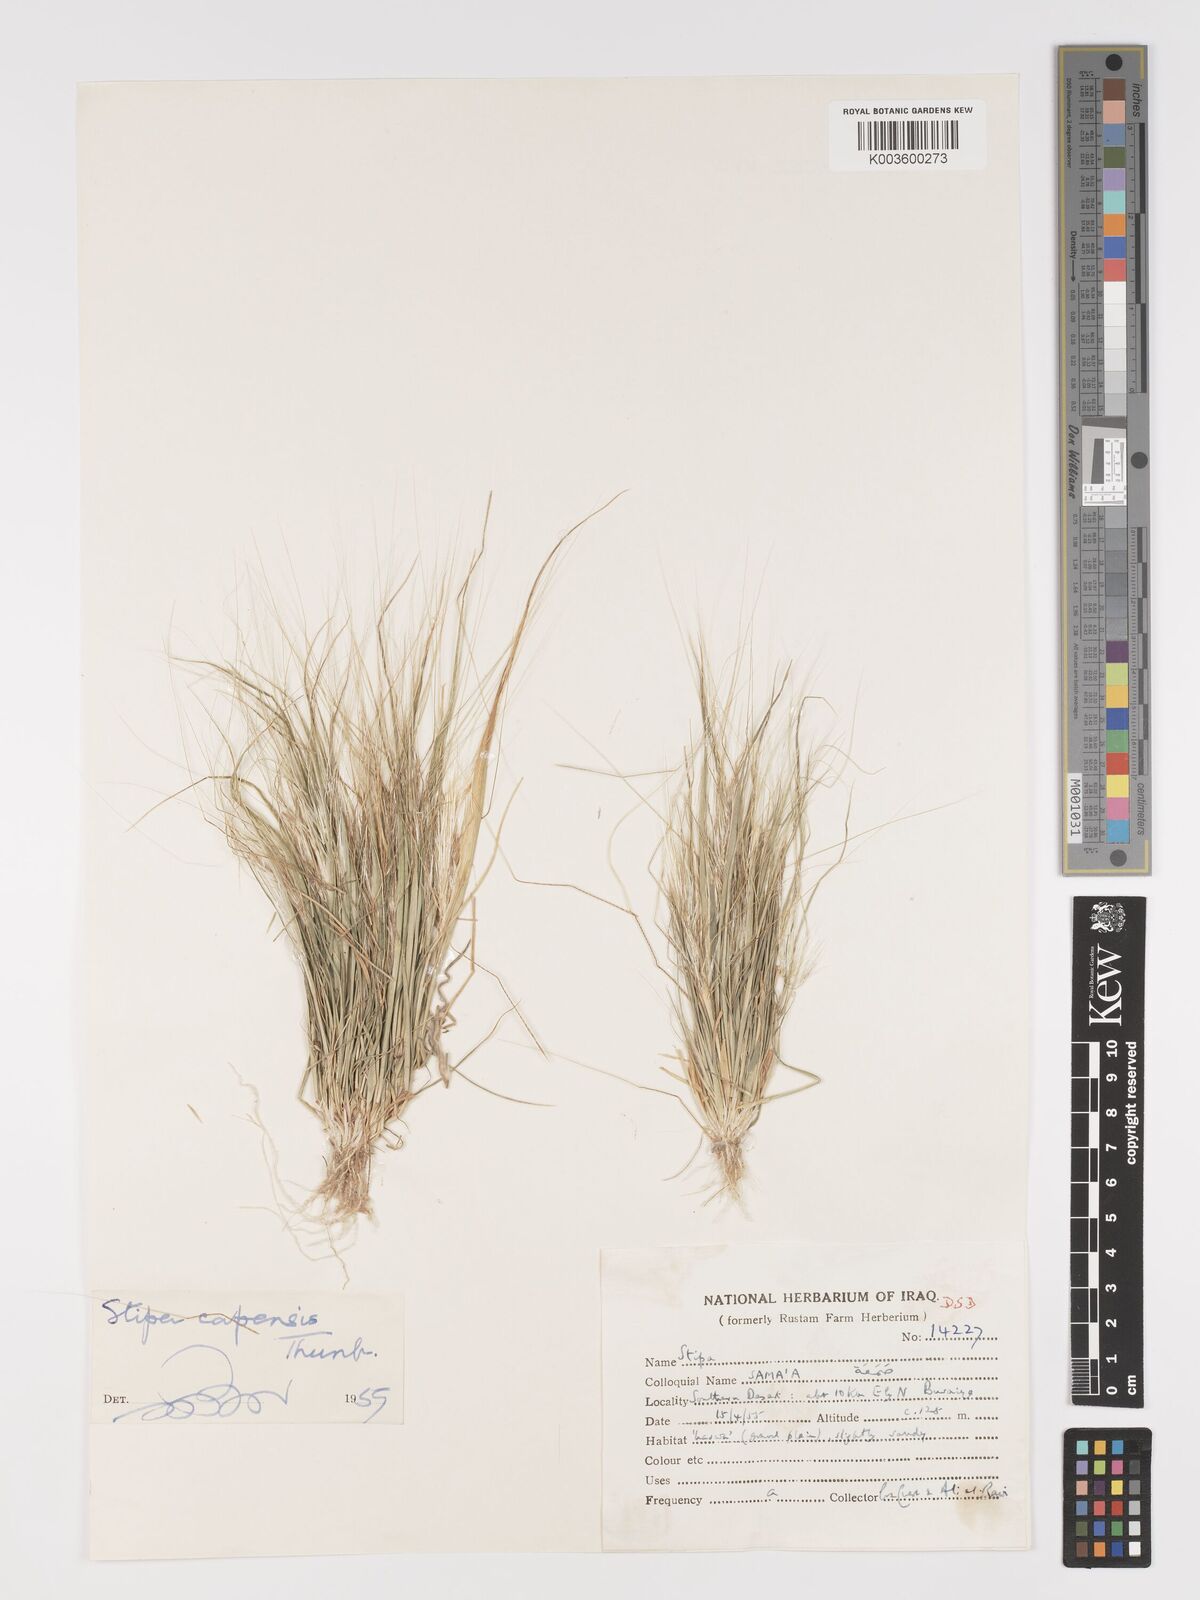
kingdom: Plantae
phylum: Tracheophyta
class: Liliopsida
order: Poales
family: Poaceae
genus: Stipellula
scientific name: Stipellula capensis
